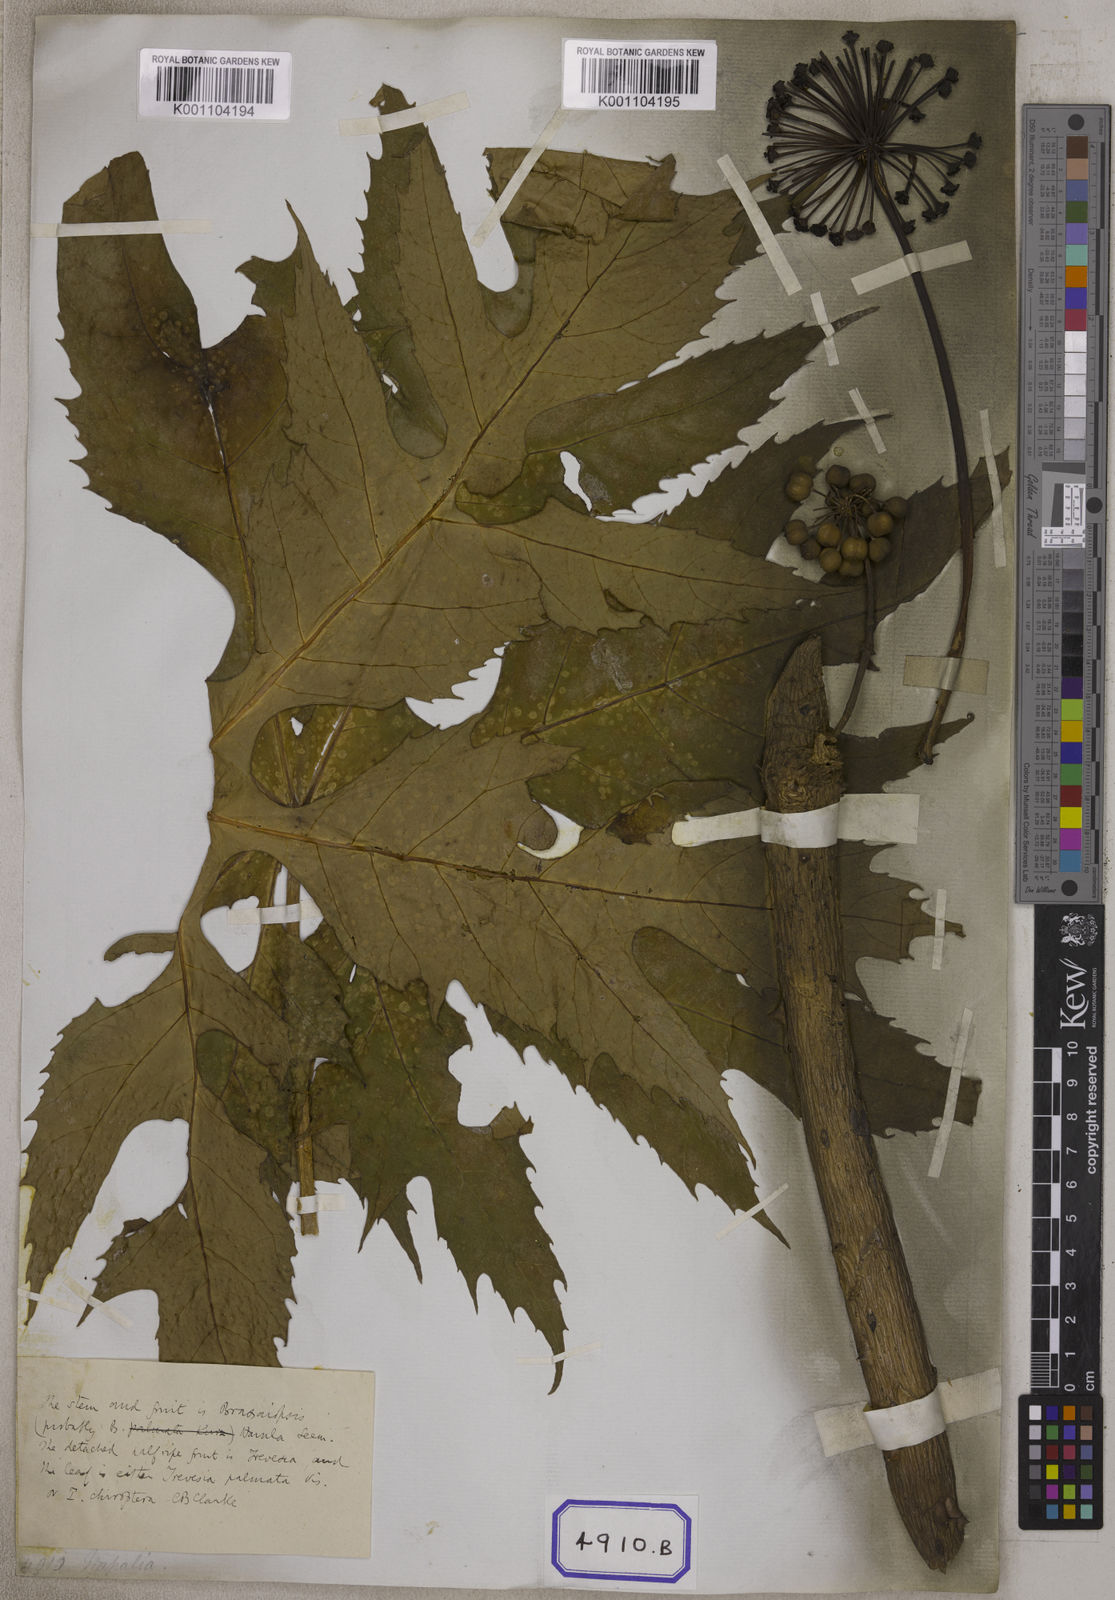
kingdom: Plantae
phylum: Tracheophyta
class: Magnoliopsida
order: Apiales
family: Araliaceae
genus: Hedera
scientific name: Hedera
